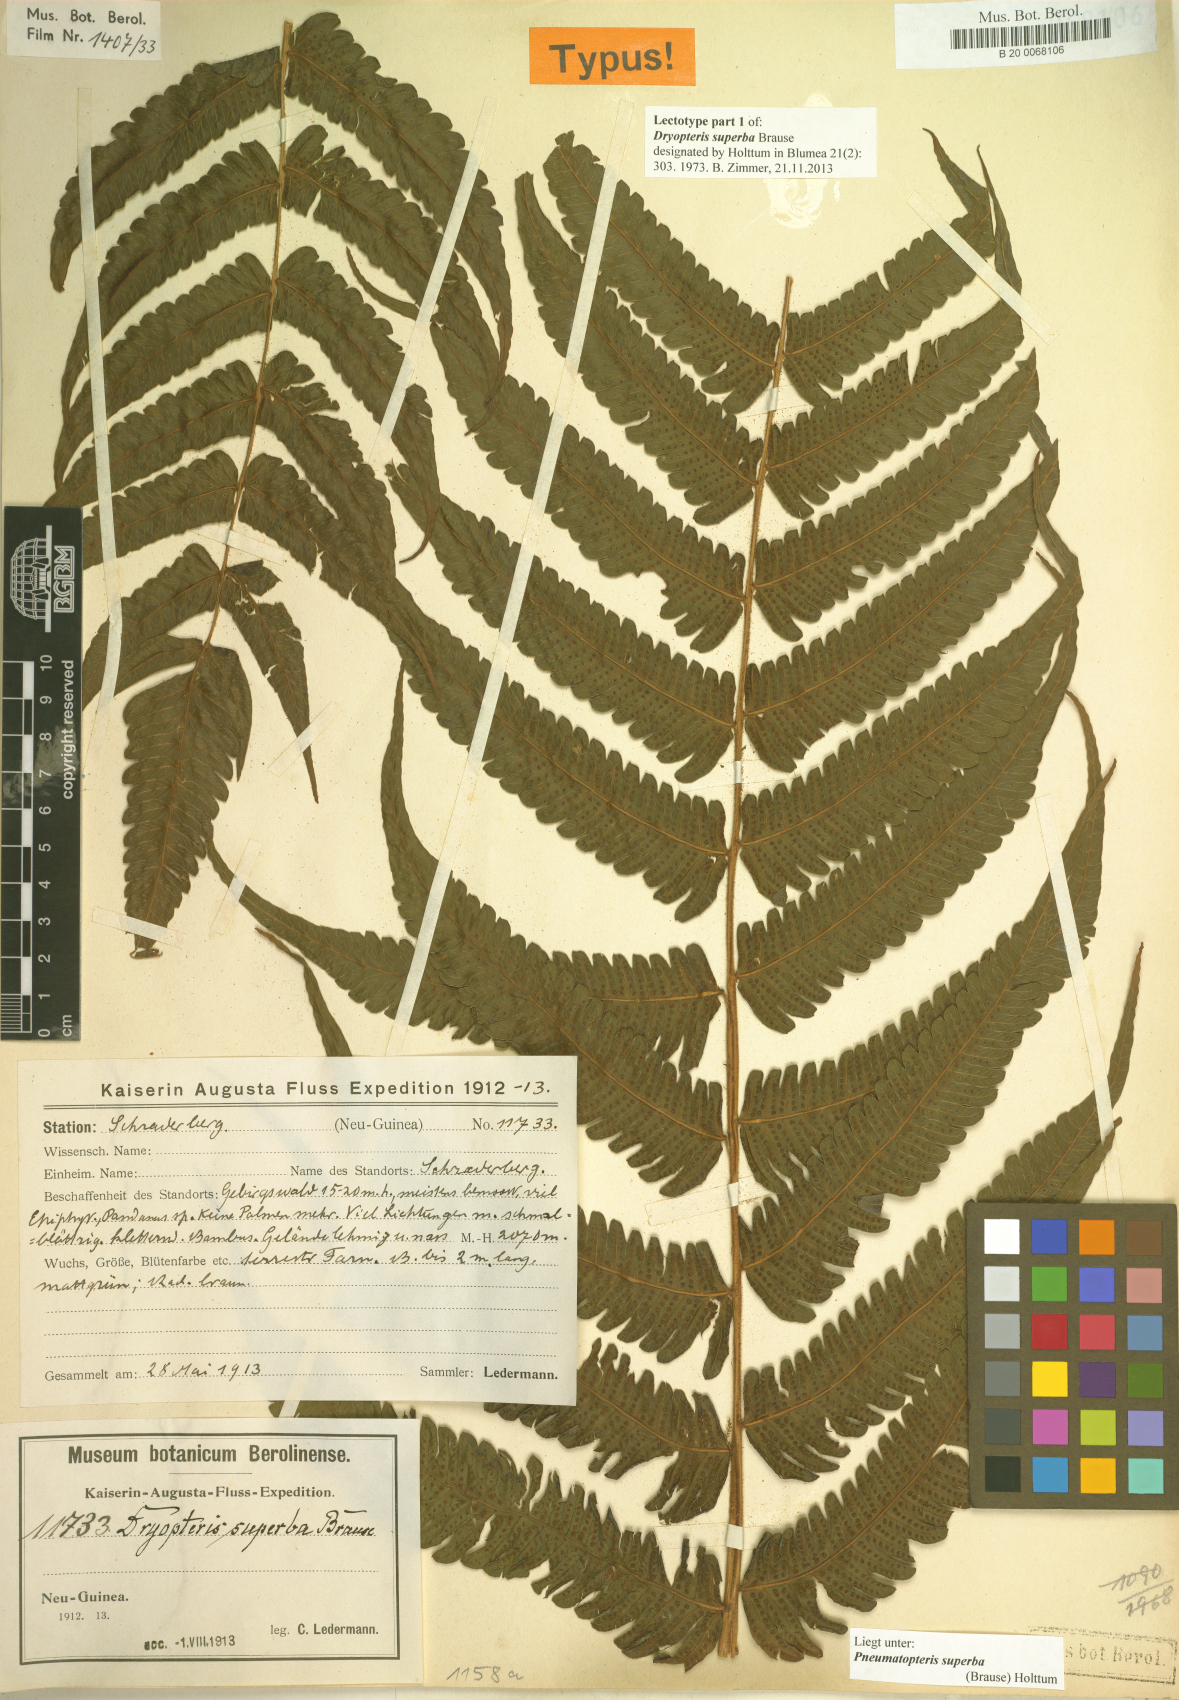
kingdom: Plantae
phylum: Tracheophyta
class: Polypodiopsida
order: Polypodiales
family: Thelypteridaceae
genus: Sphaerostephanos
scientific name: Sphaerostephanos superbus
